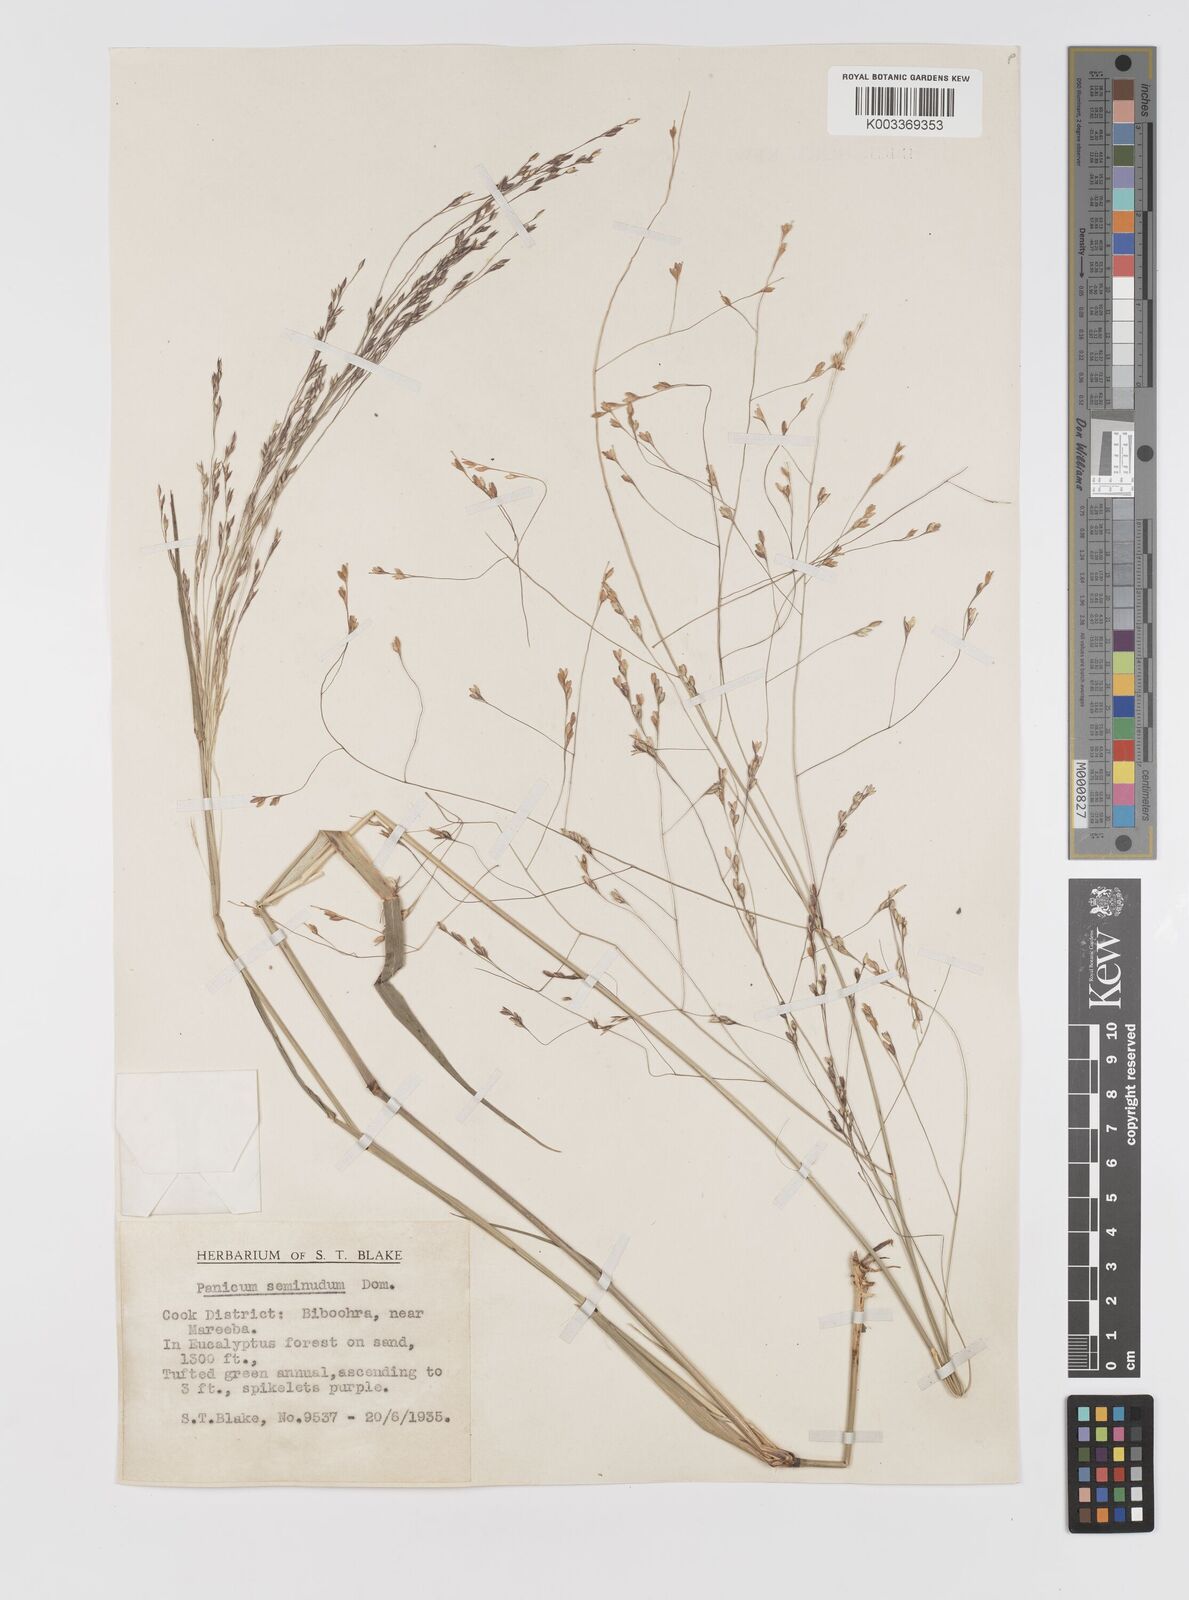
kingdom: Plantae
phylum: Tracheophyta
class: Liliopsida
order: Poales
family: Poaceae
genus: Panicum
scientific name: Panicum seminudum
